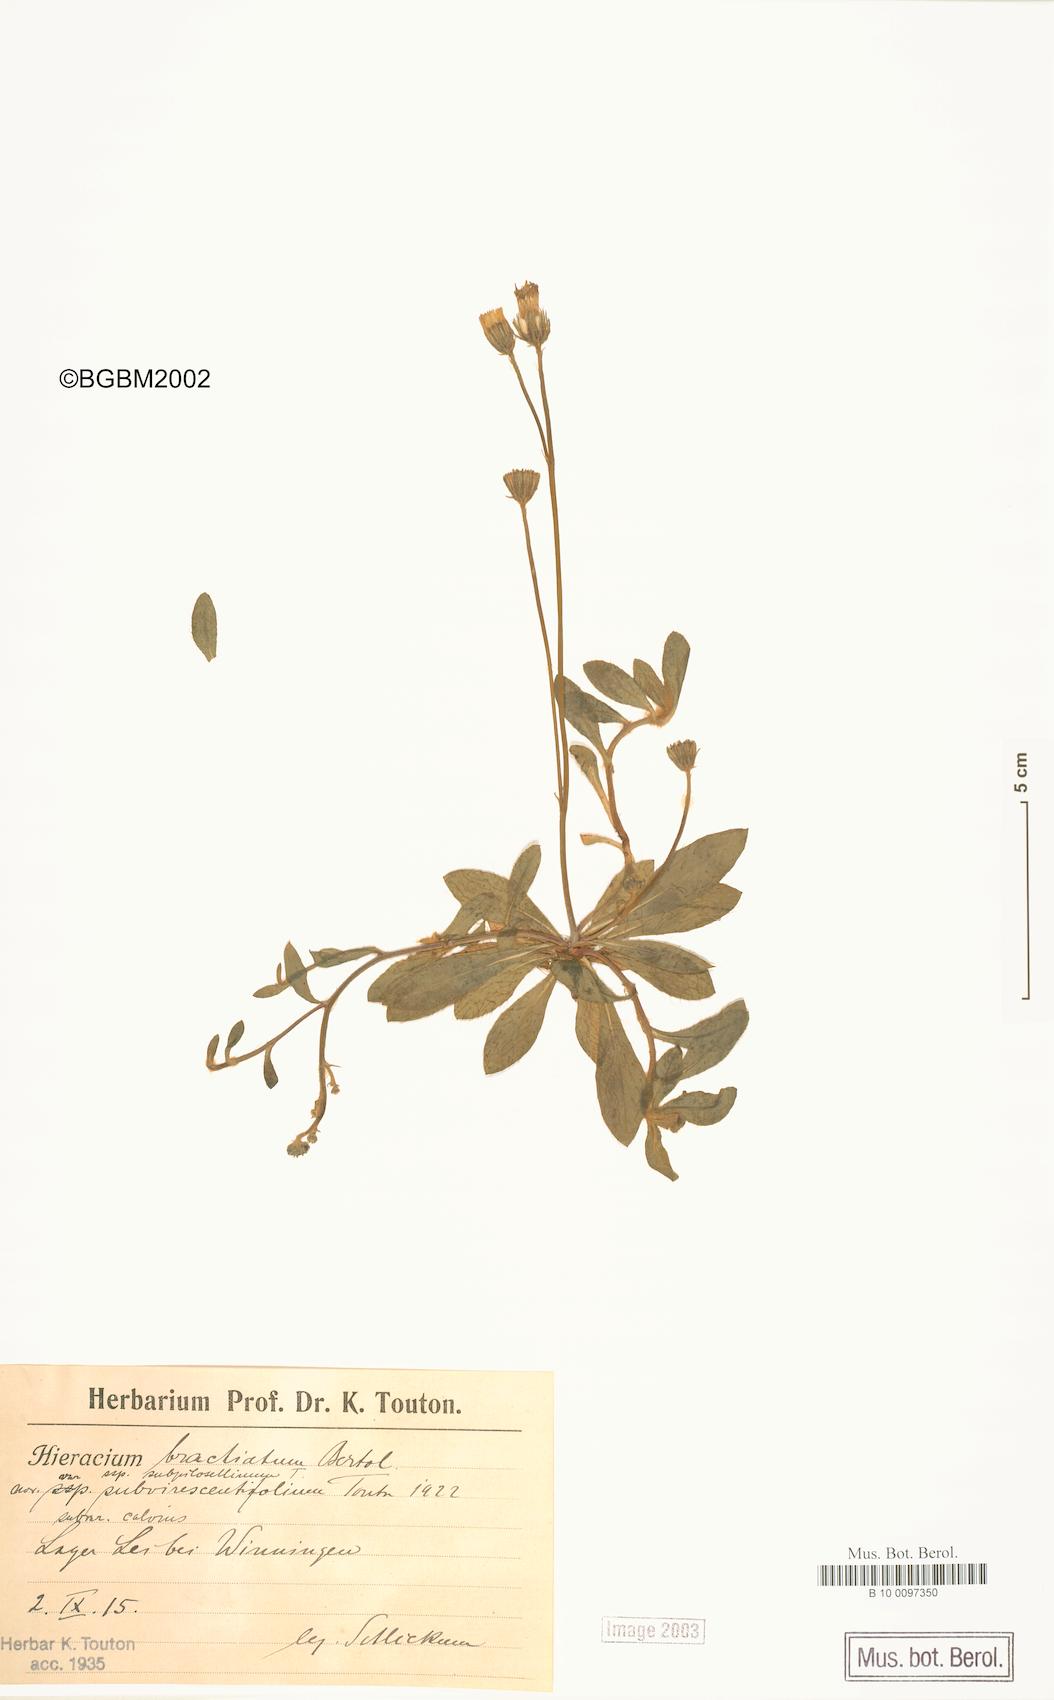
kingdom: Plantae
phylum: Tracheophyta
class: Magnoliopsida
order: Asterales
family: Asteraceae
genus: Pilosella
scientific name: Pilosella acutifolia
